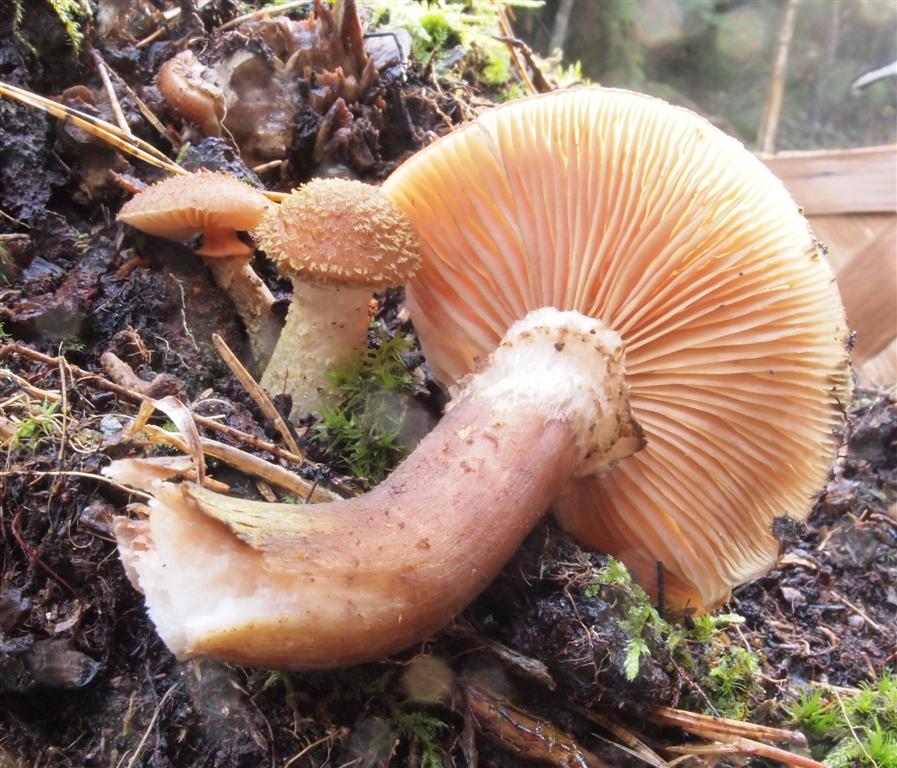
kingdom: Fungi
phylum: Basidiomycota
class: Agaricomycetes
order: Agaricales
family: Physalacriaceae
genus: Armillaria
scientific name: Armillaria lutea
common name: køllestokket honningsvamp
